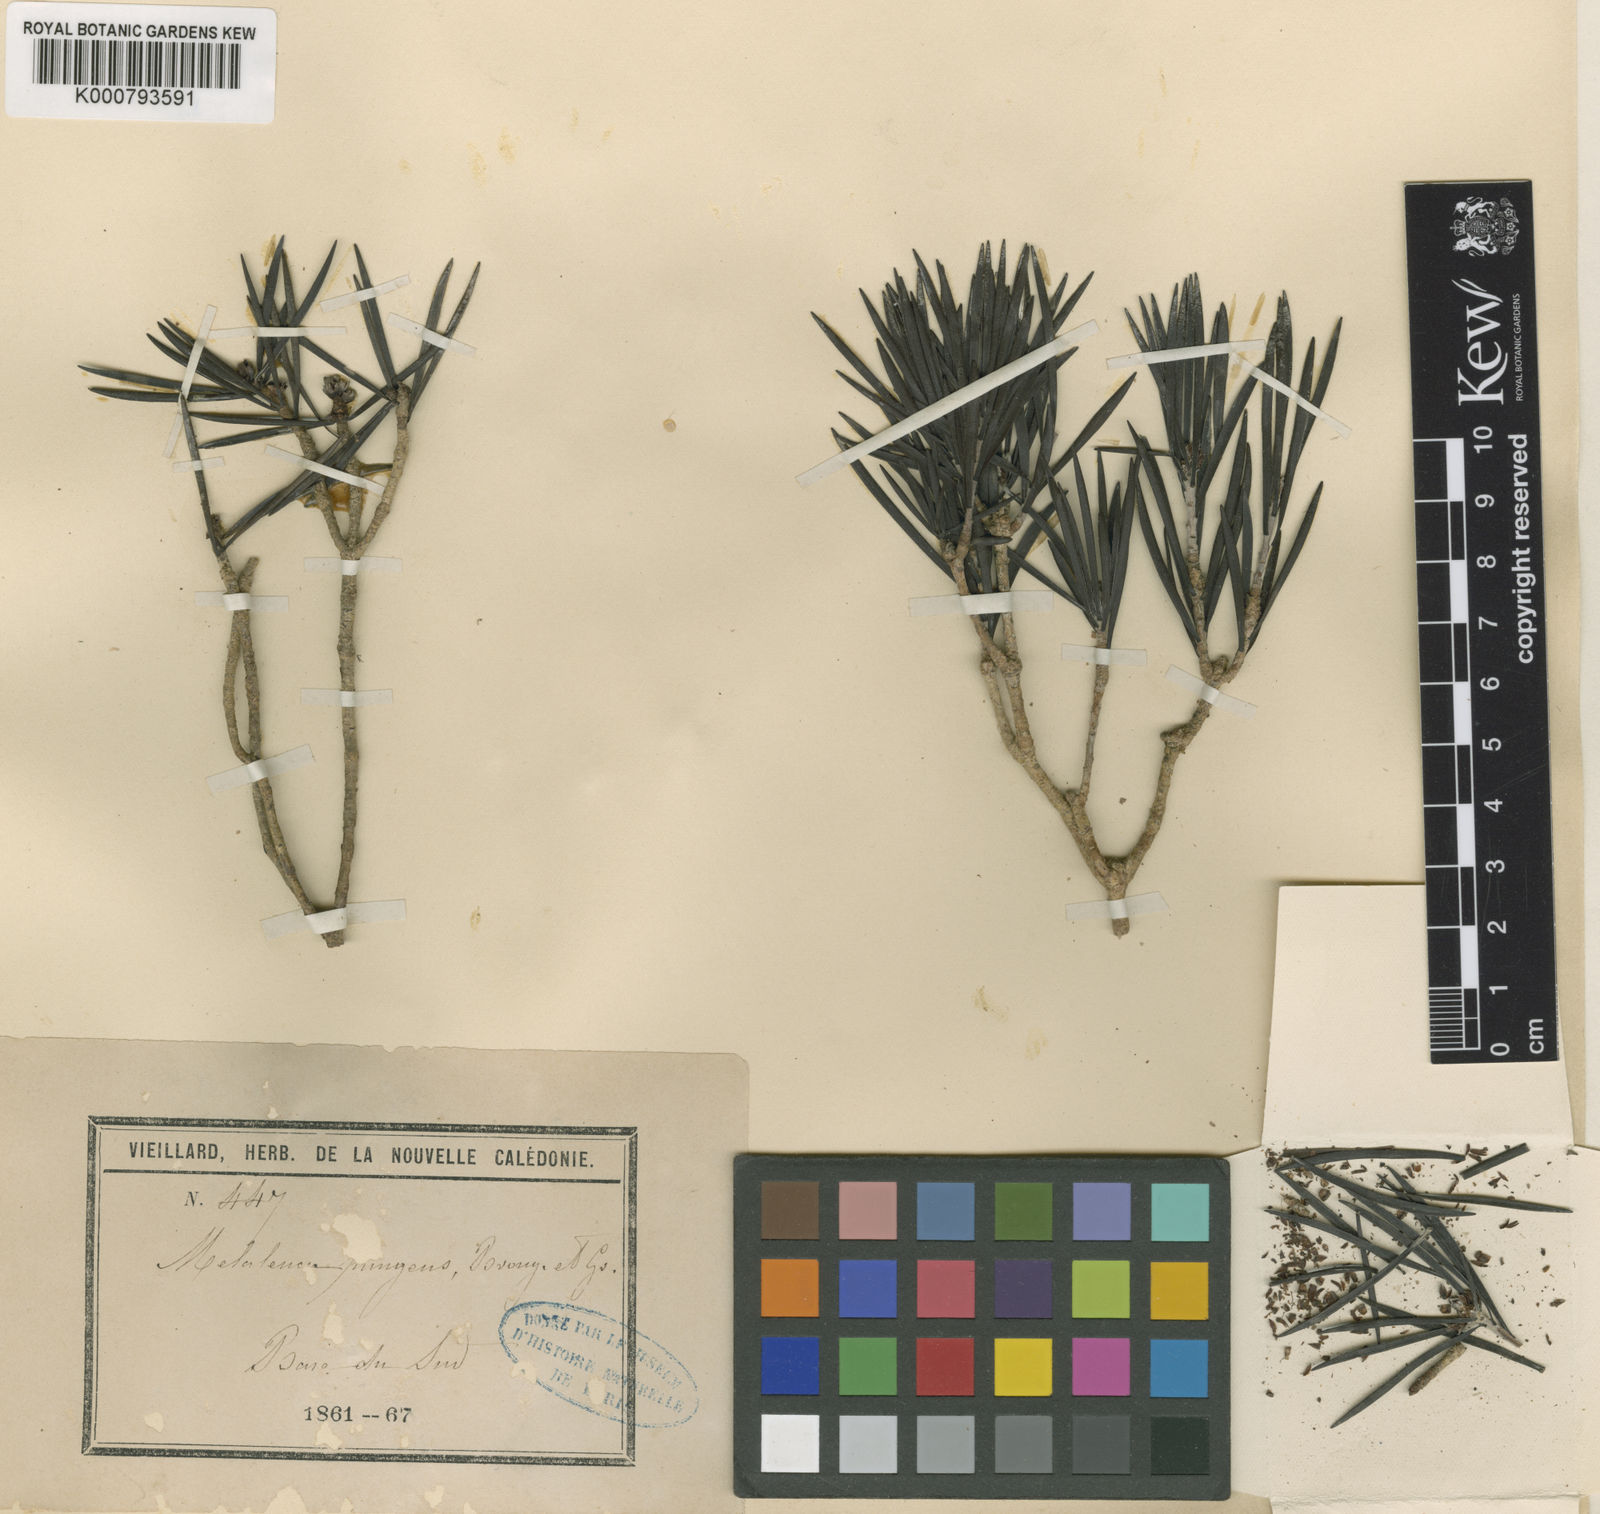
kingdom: Plantae
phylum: Tracheophyta
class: Magnoliopsida
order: Myrtales
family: Myrtaceae
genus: Melaleuca
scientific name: Melaleuca brongniartii
